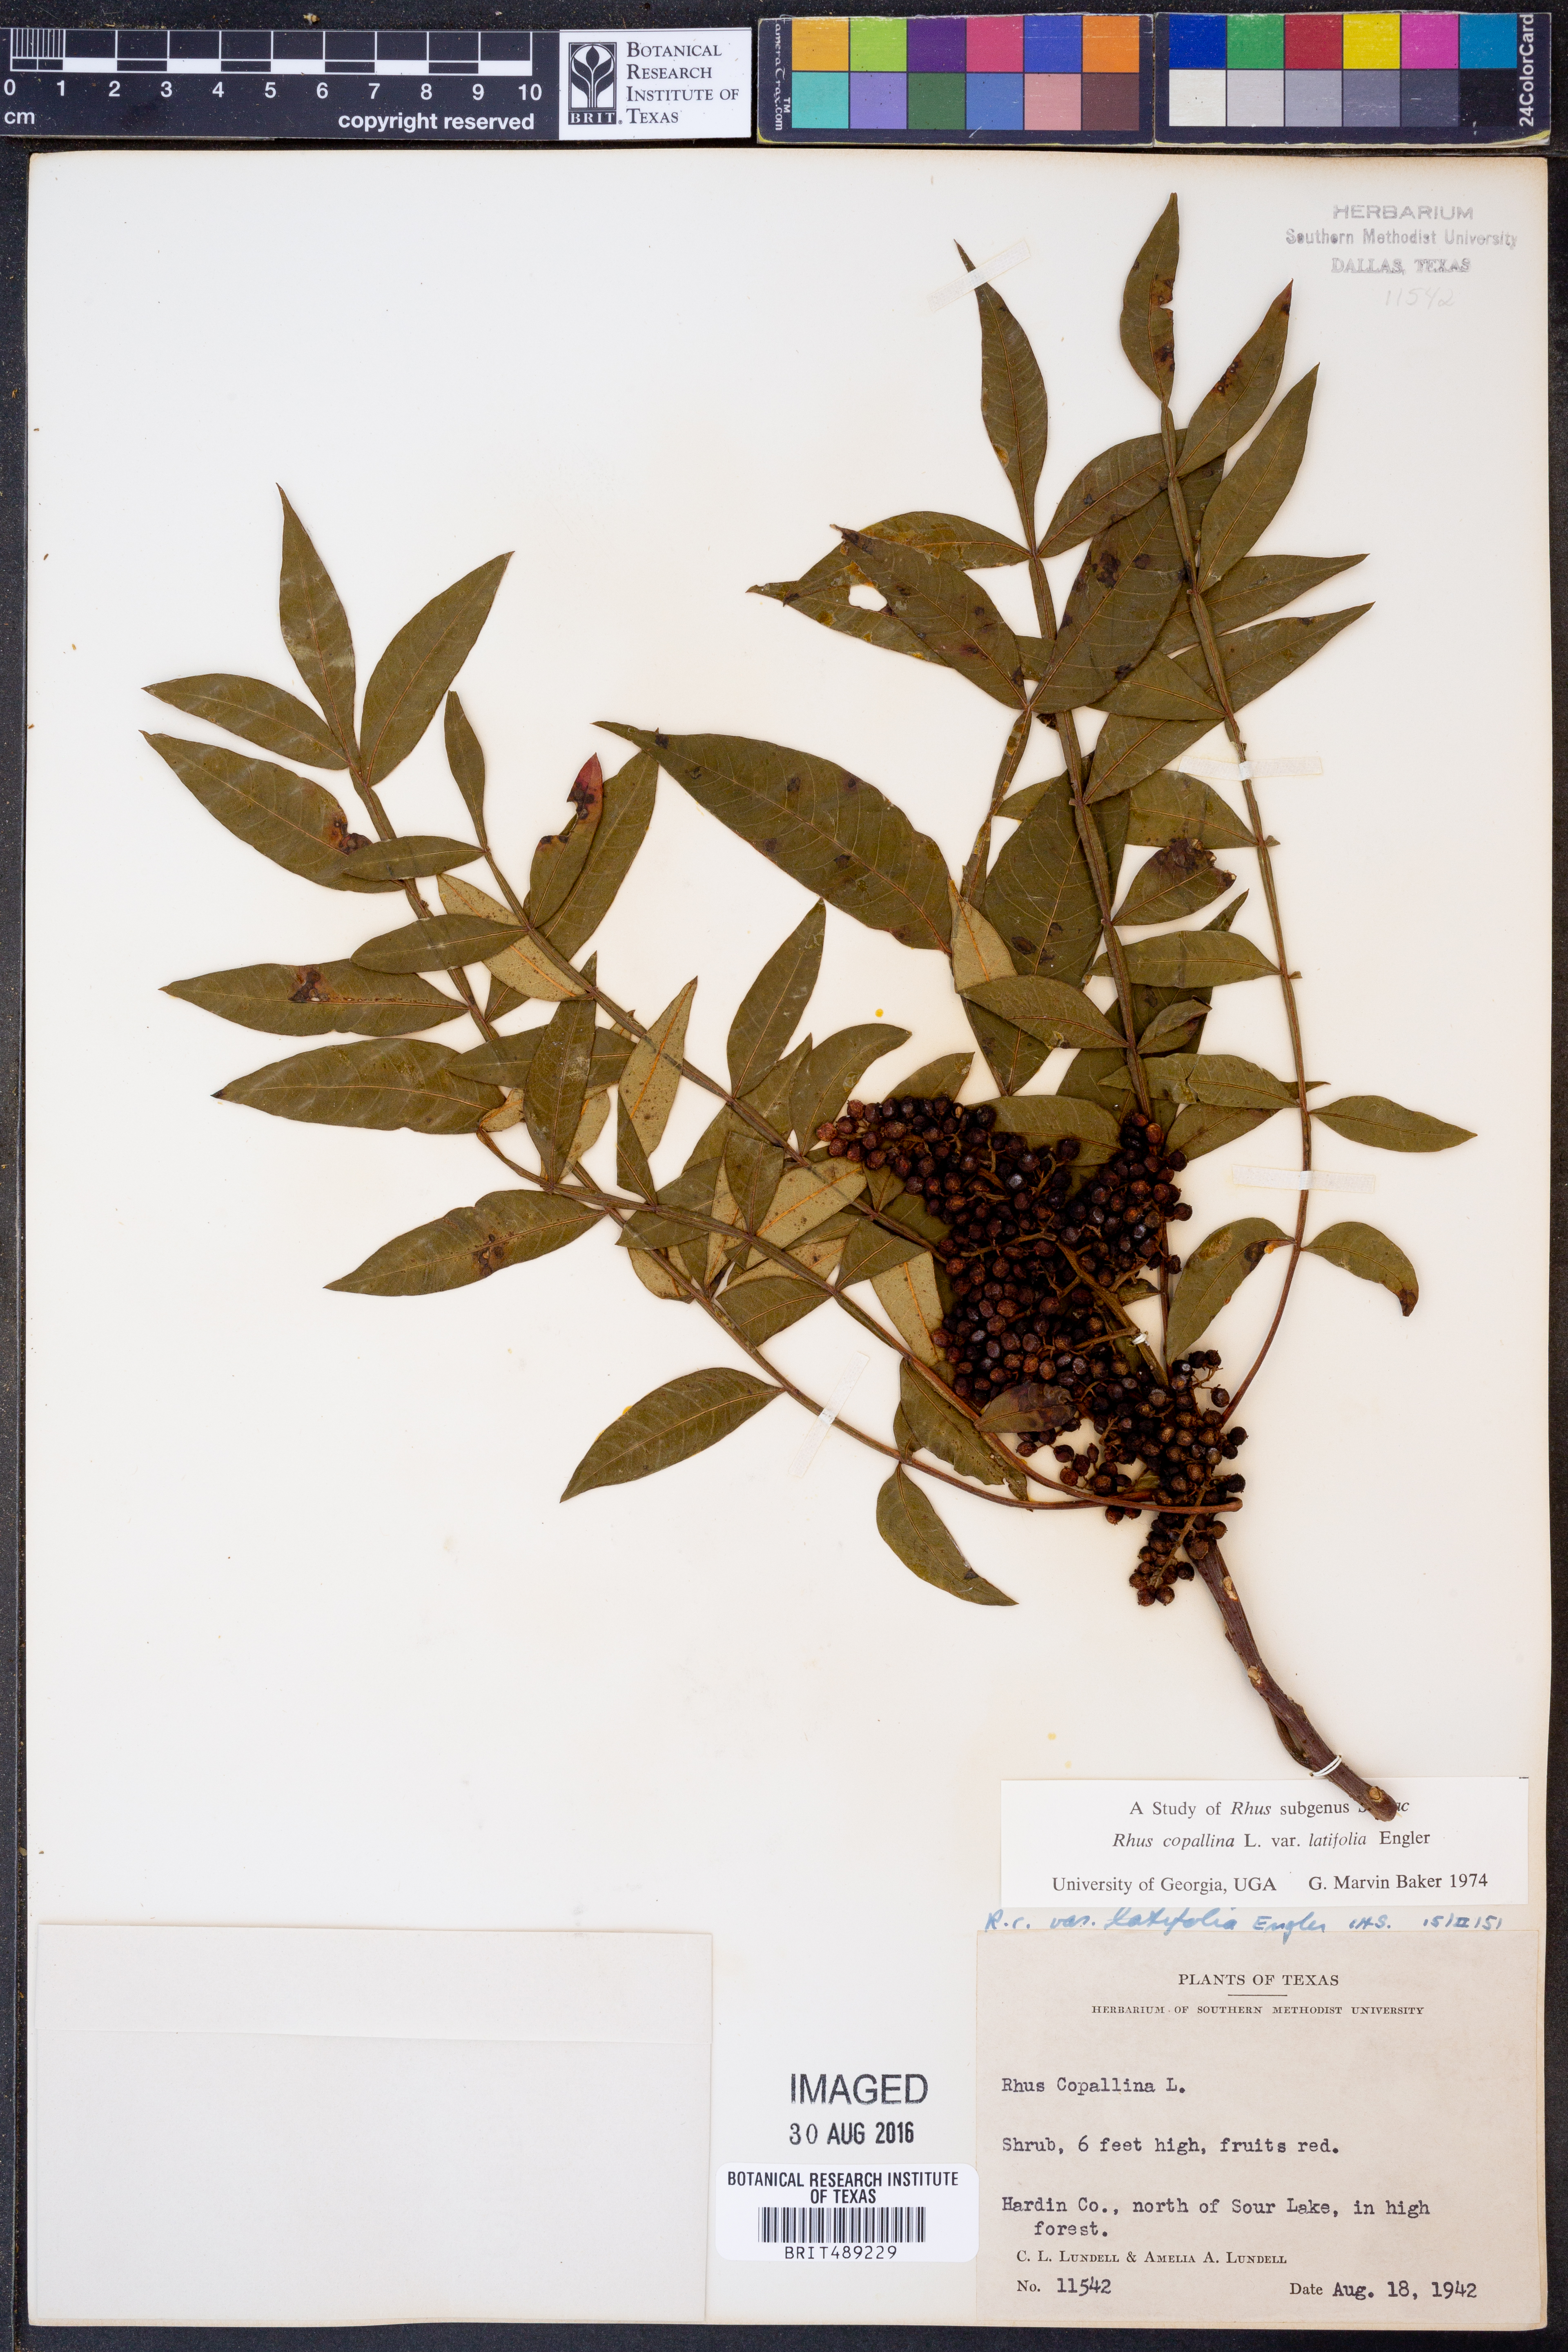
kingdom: Plantae
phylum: Tracheophyta
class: Magnoliopsida
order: Sapindales
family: Anacardiaceae
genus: Rhus
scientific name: Rhus copallina
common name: Shining sumac
